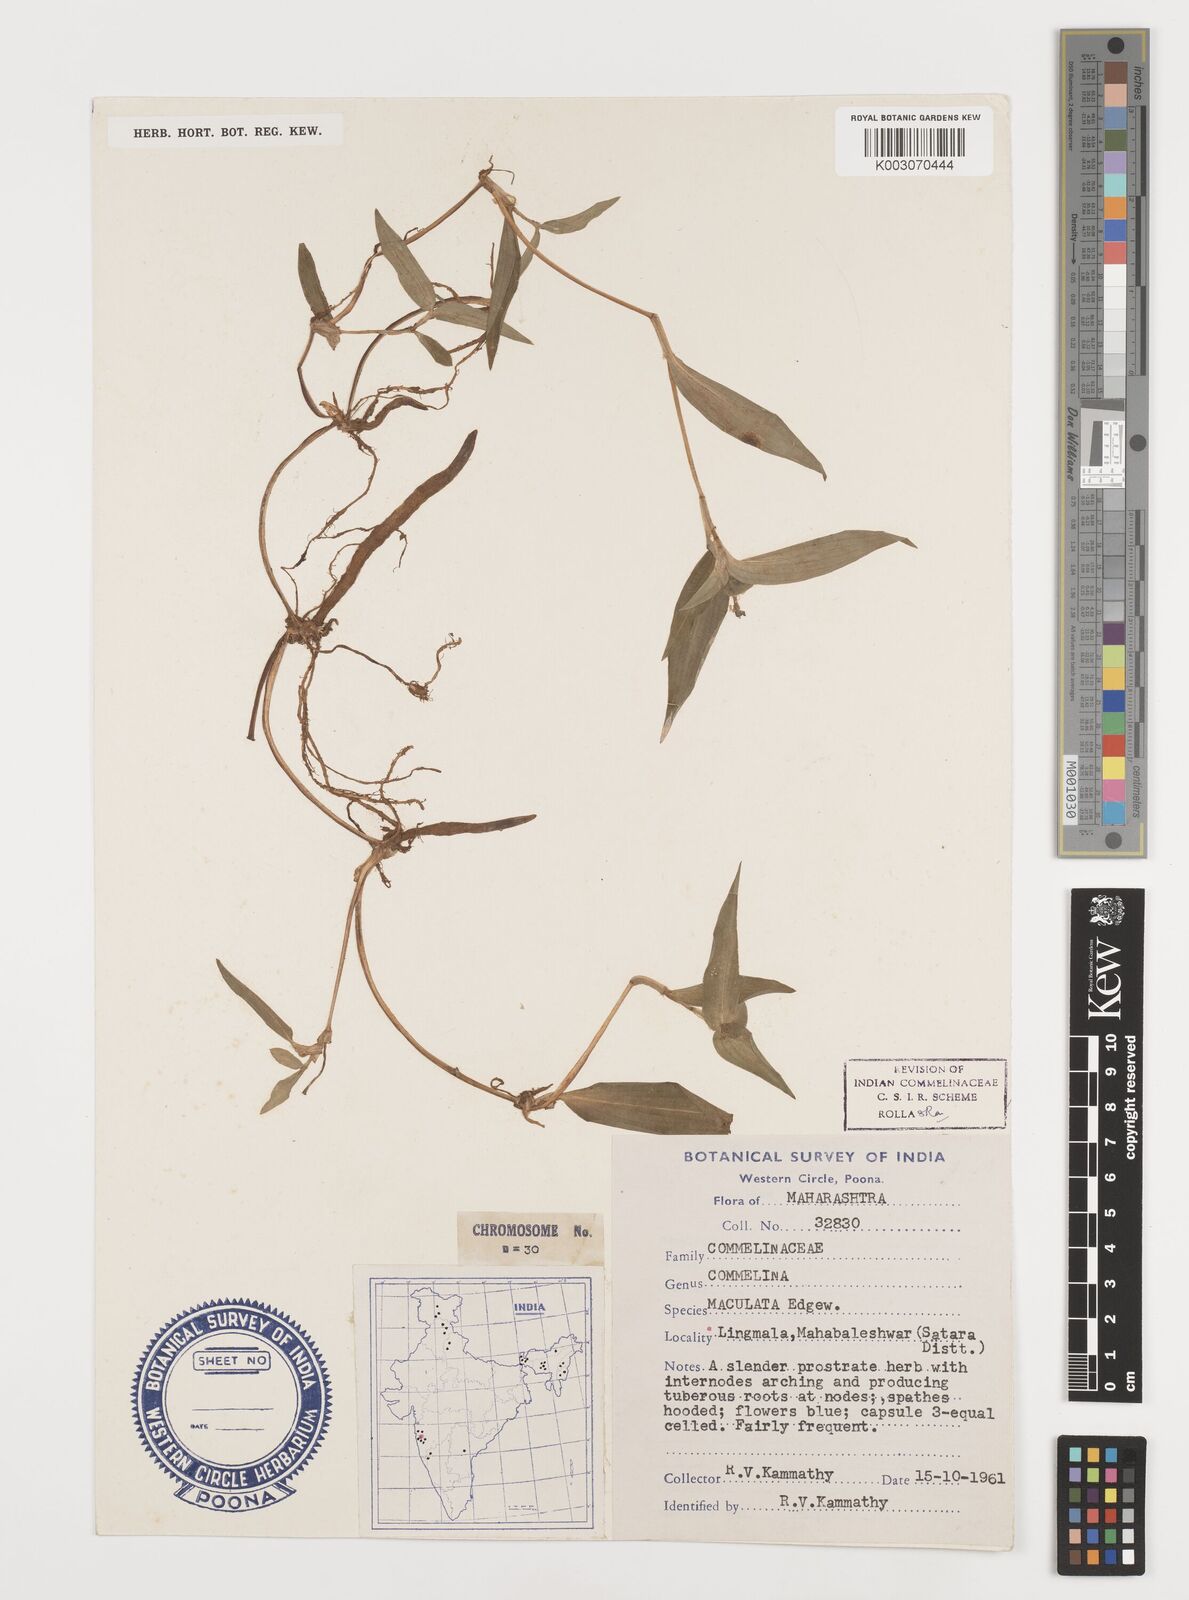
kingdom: Plantae
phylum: Tracheophyta
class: Liliopsida
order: Commelinales
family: Commelinaceae
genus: Commelina
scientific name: Commelina maculata
